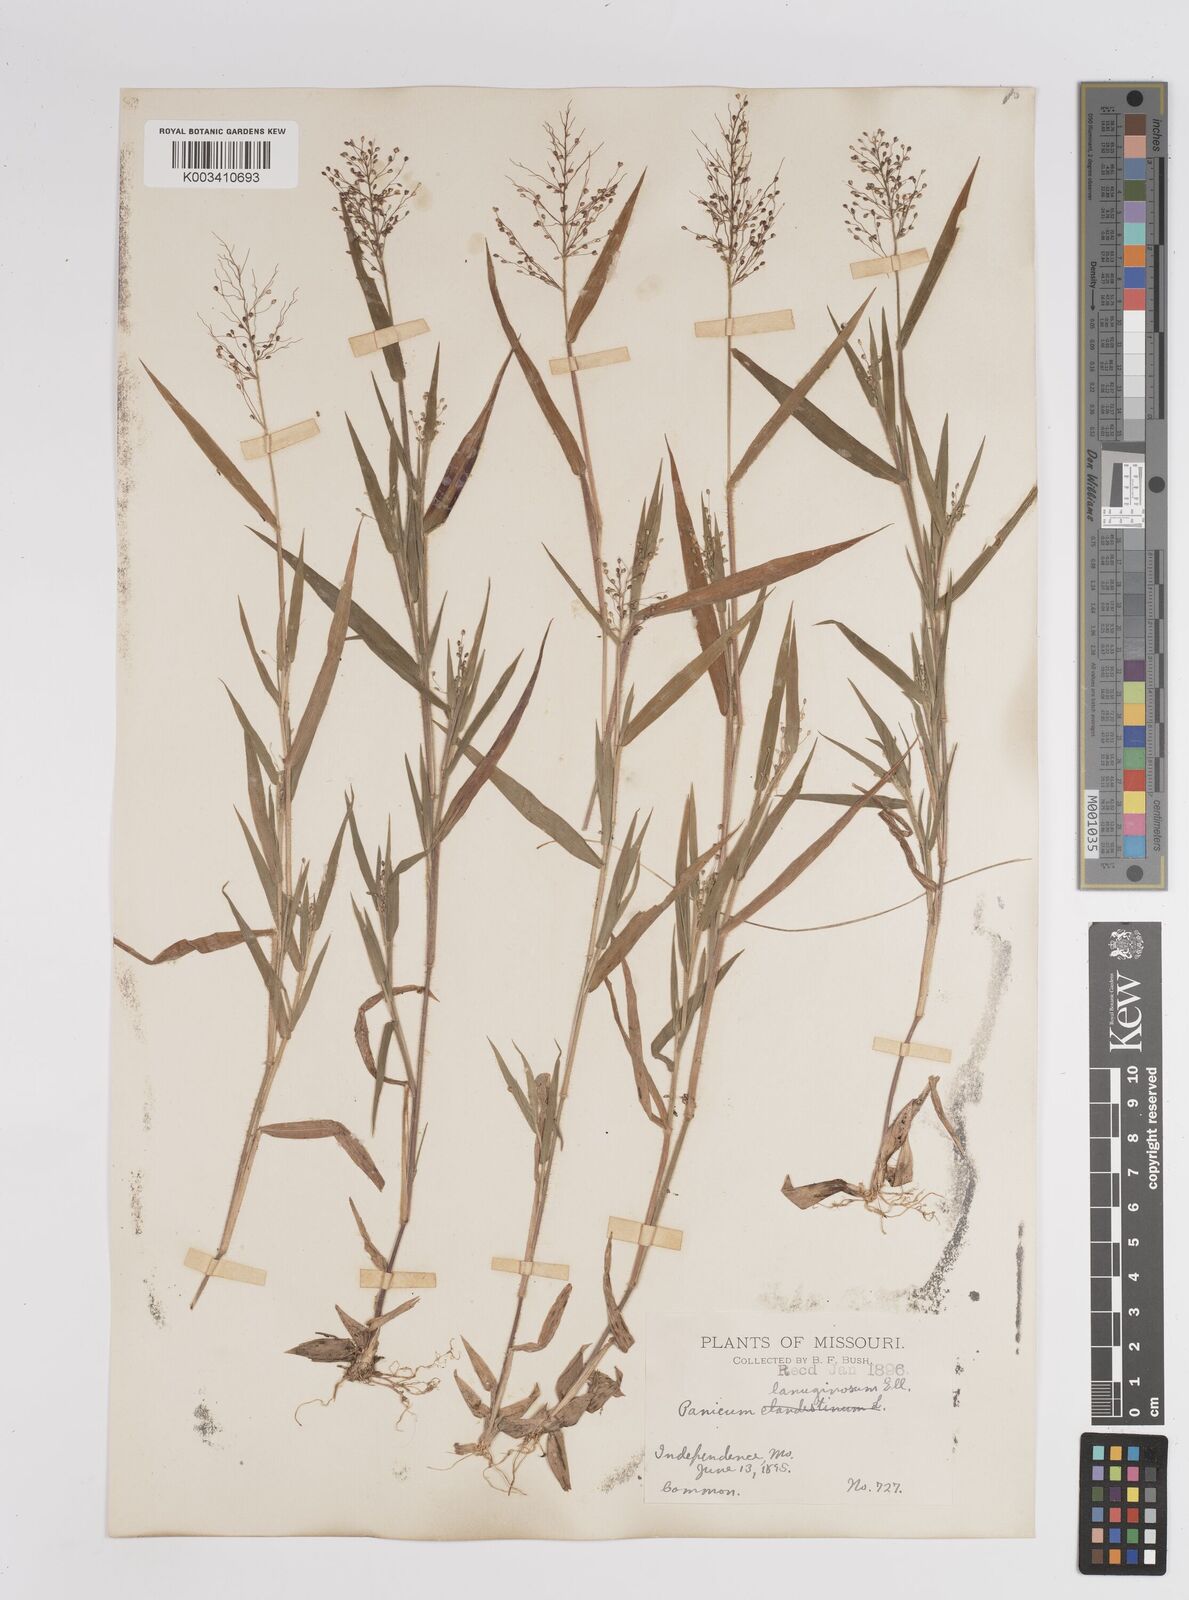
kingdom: Plantae
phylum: Tracheophyta
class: Liliopsida
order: Poales
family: Poaceae
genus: Dichanthelium
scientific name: Dichanthelium lanuginosum
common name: Woolly panicgrass
